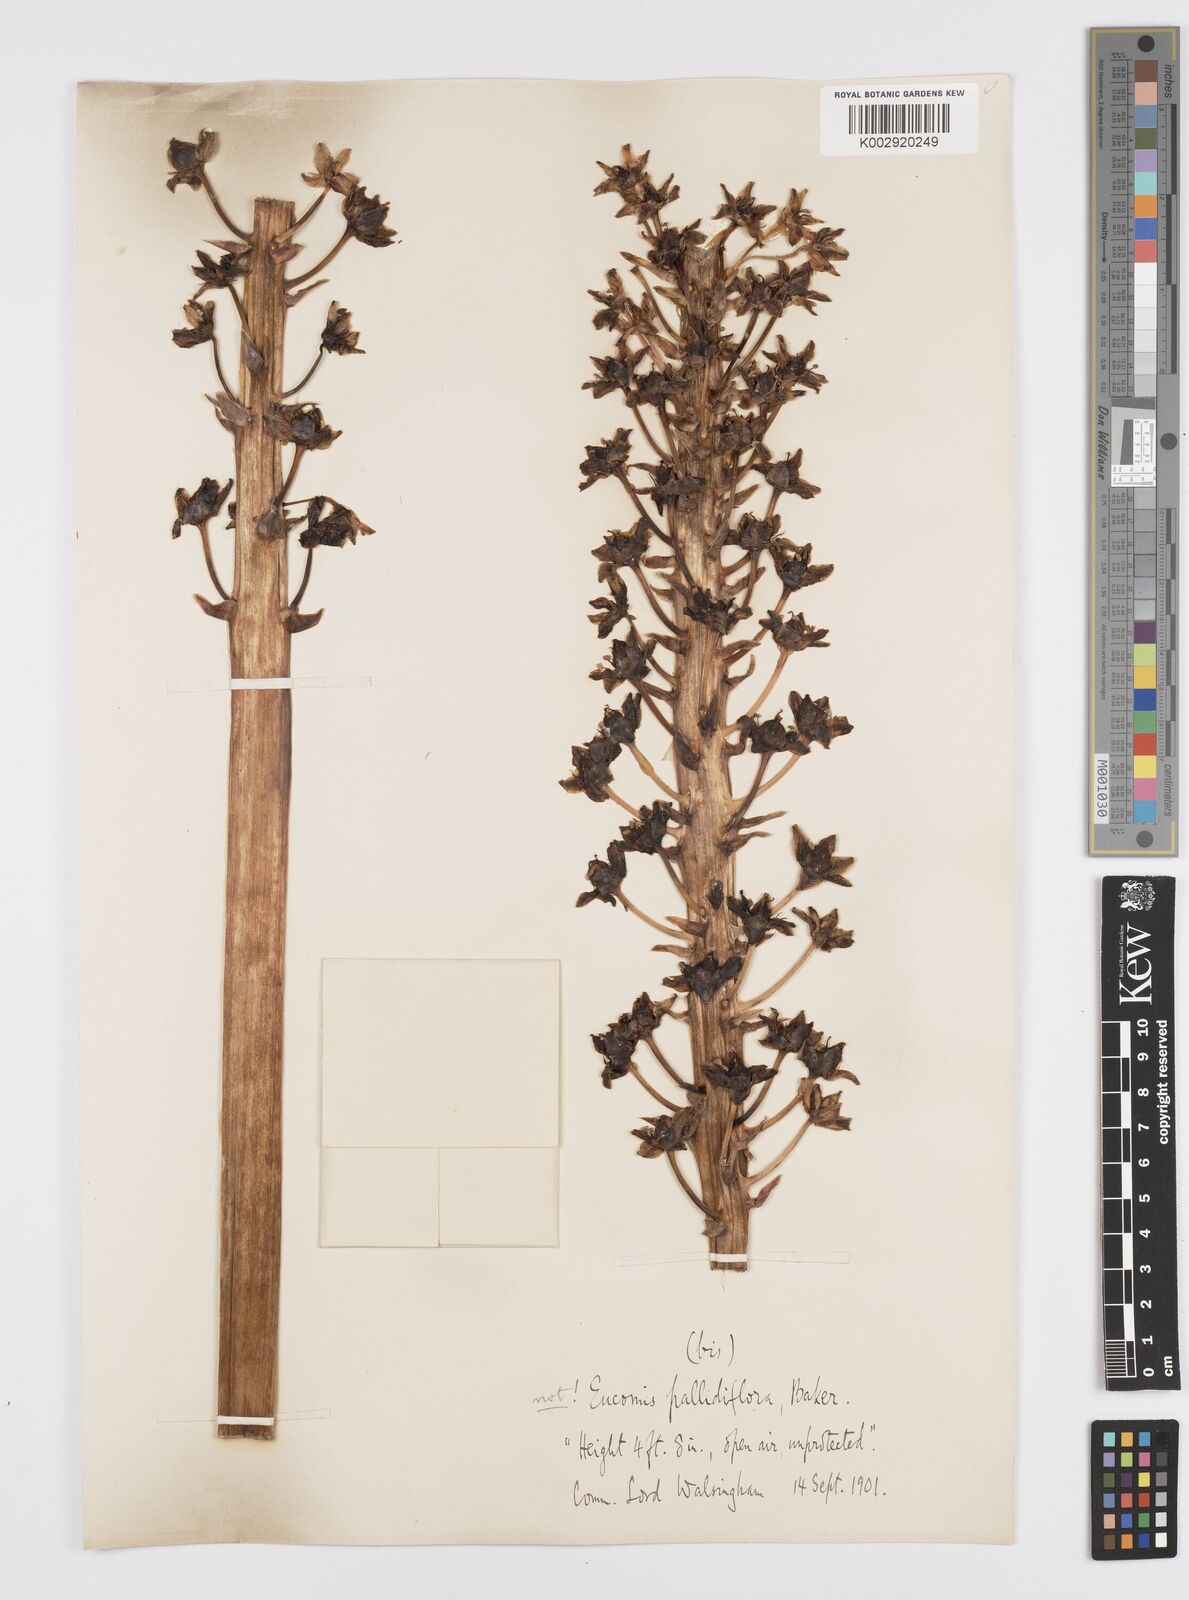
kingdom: Plantae
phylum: Tracheophyta
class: Liliopsida
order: Asparagales
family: Asparagaceae
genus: Eucomis
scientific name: Eucomis pallidiflora
